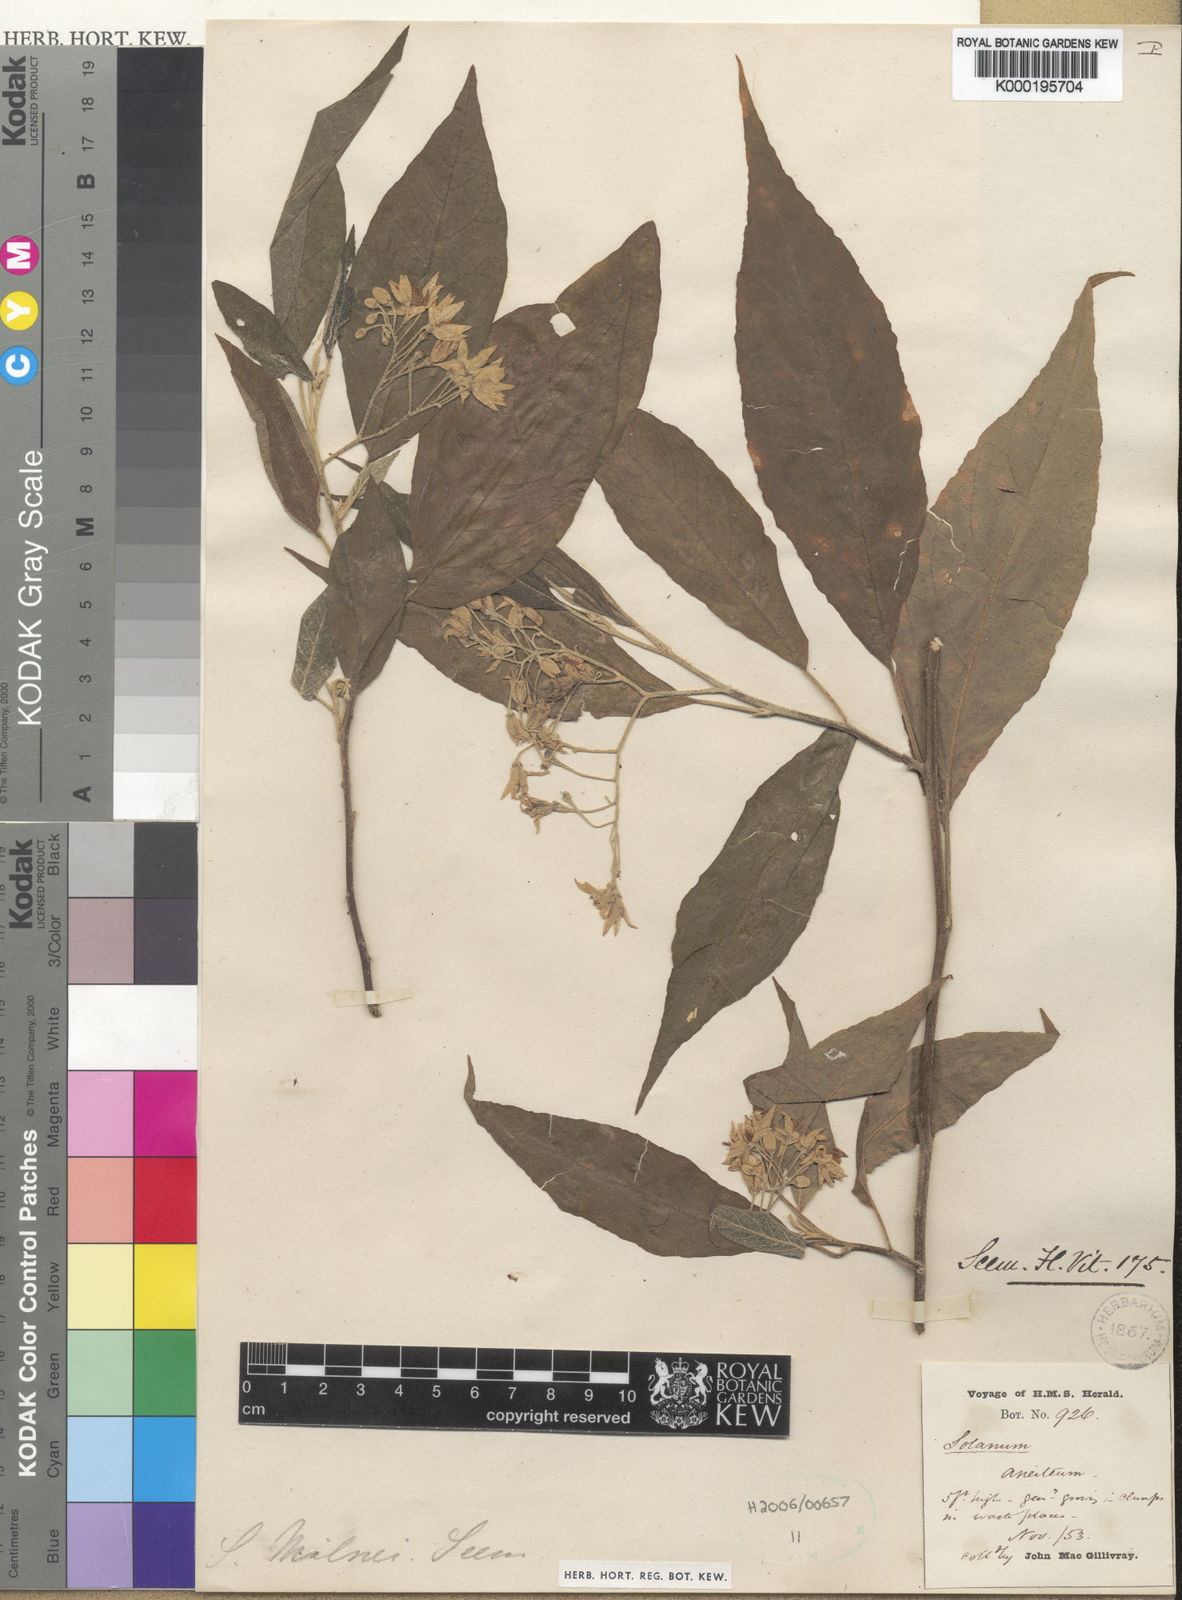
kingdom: Plantae
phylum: Tracheophyta
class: Magnoliopsida
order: Solanales
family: Solanaceae
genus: Solanum
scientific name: Solanum milnei
